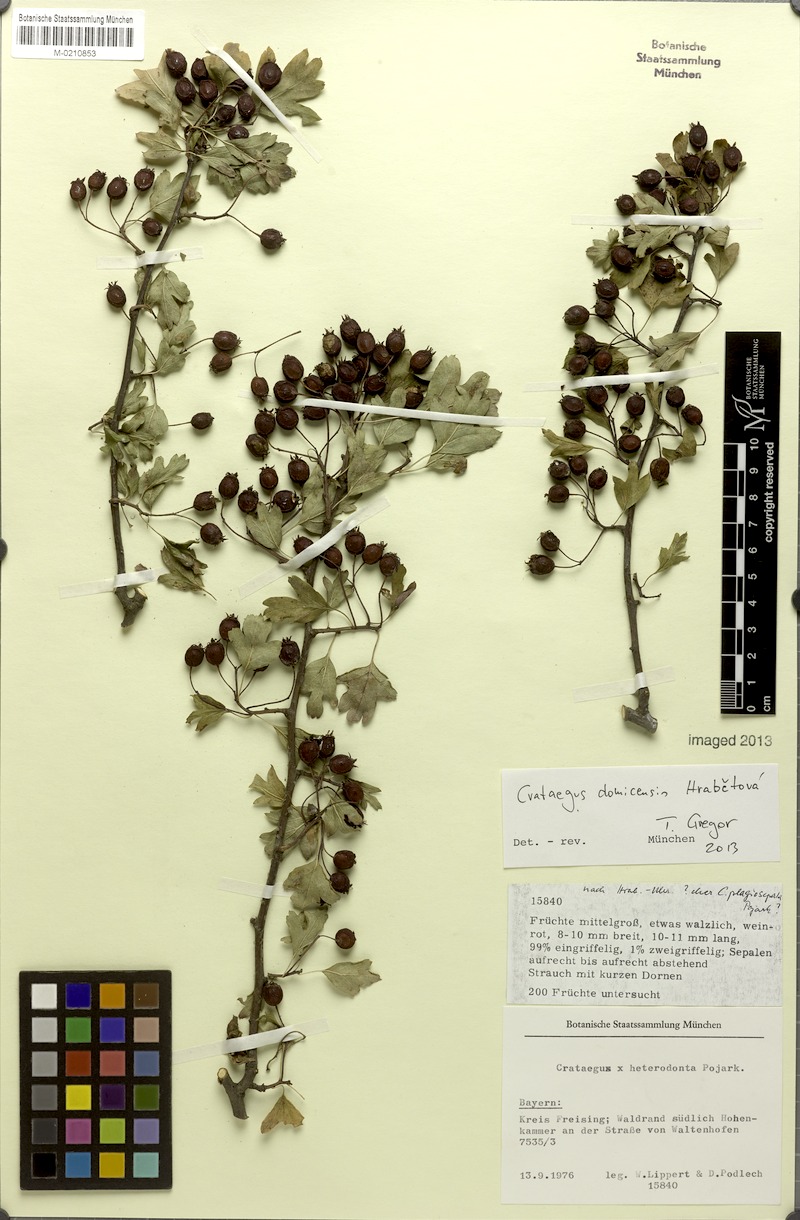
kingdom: Plantae
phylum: Tracheophyta
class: Magnoliopsida
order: Rosales
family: Rosaceae
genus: Crataegus
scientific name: Crataegus domicensis
